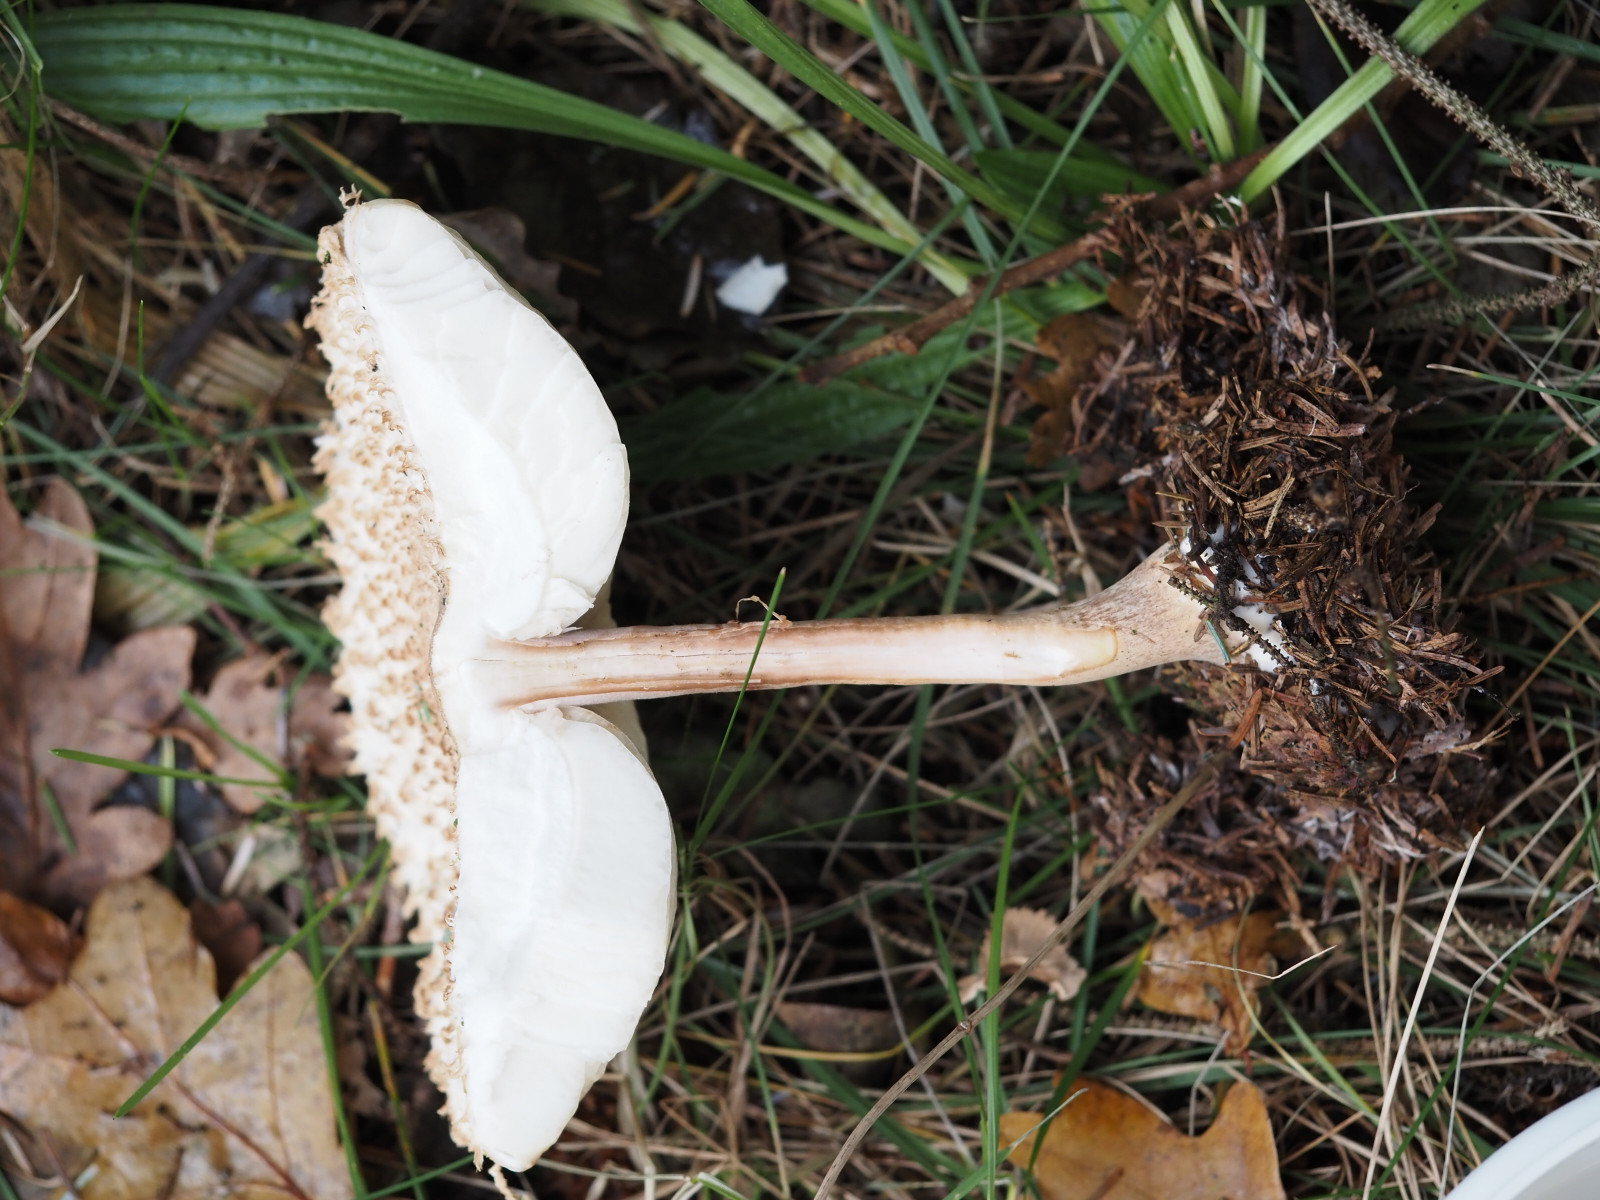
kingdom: Fungi
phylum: Basidiomycota
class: Agaricomycetes
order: Agaricales
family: Agaricaceae
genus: Leucoagaricus
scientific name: Leucoagaricus nympharum
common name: gran-silkehat
